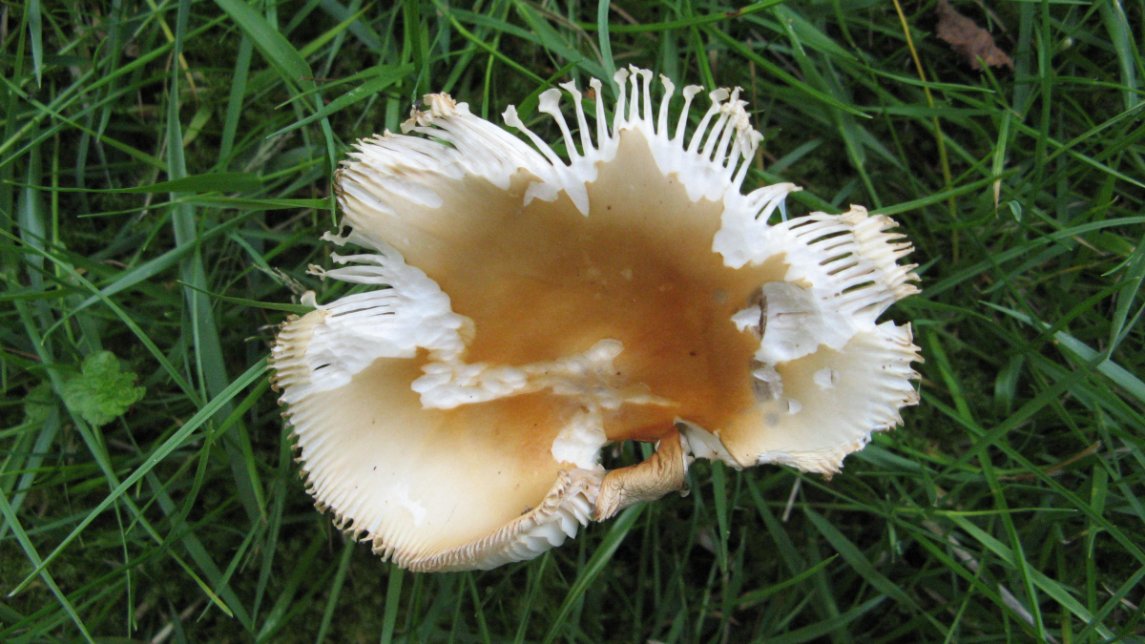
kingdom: Fungi
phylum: Basidiomycota
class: Agaricomycetes
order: Agaricales
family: Amanitaceae
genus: Amanita
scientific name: Amanita crocea
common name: gylden kam-fluesvamp
